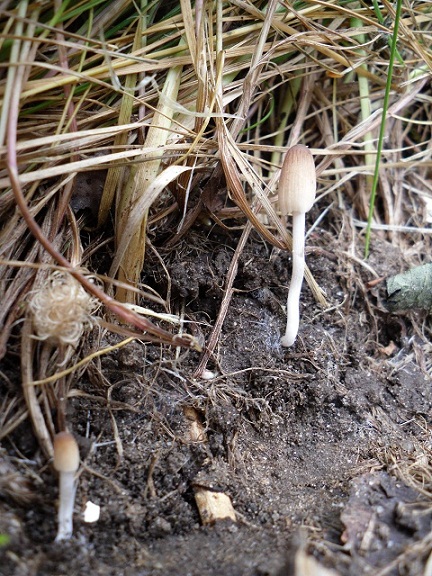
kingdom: Fungi
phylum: Basidiomycota
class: Agaricomycetes
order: Agaricales
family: Psathyrellaceae
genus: Tulosesus
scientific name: Tulosesus subimpatiens
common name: tøvende blækhat
